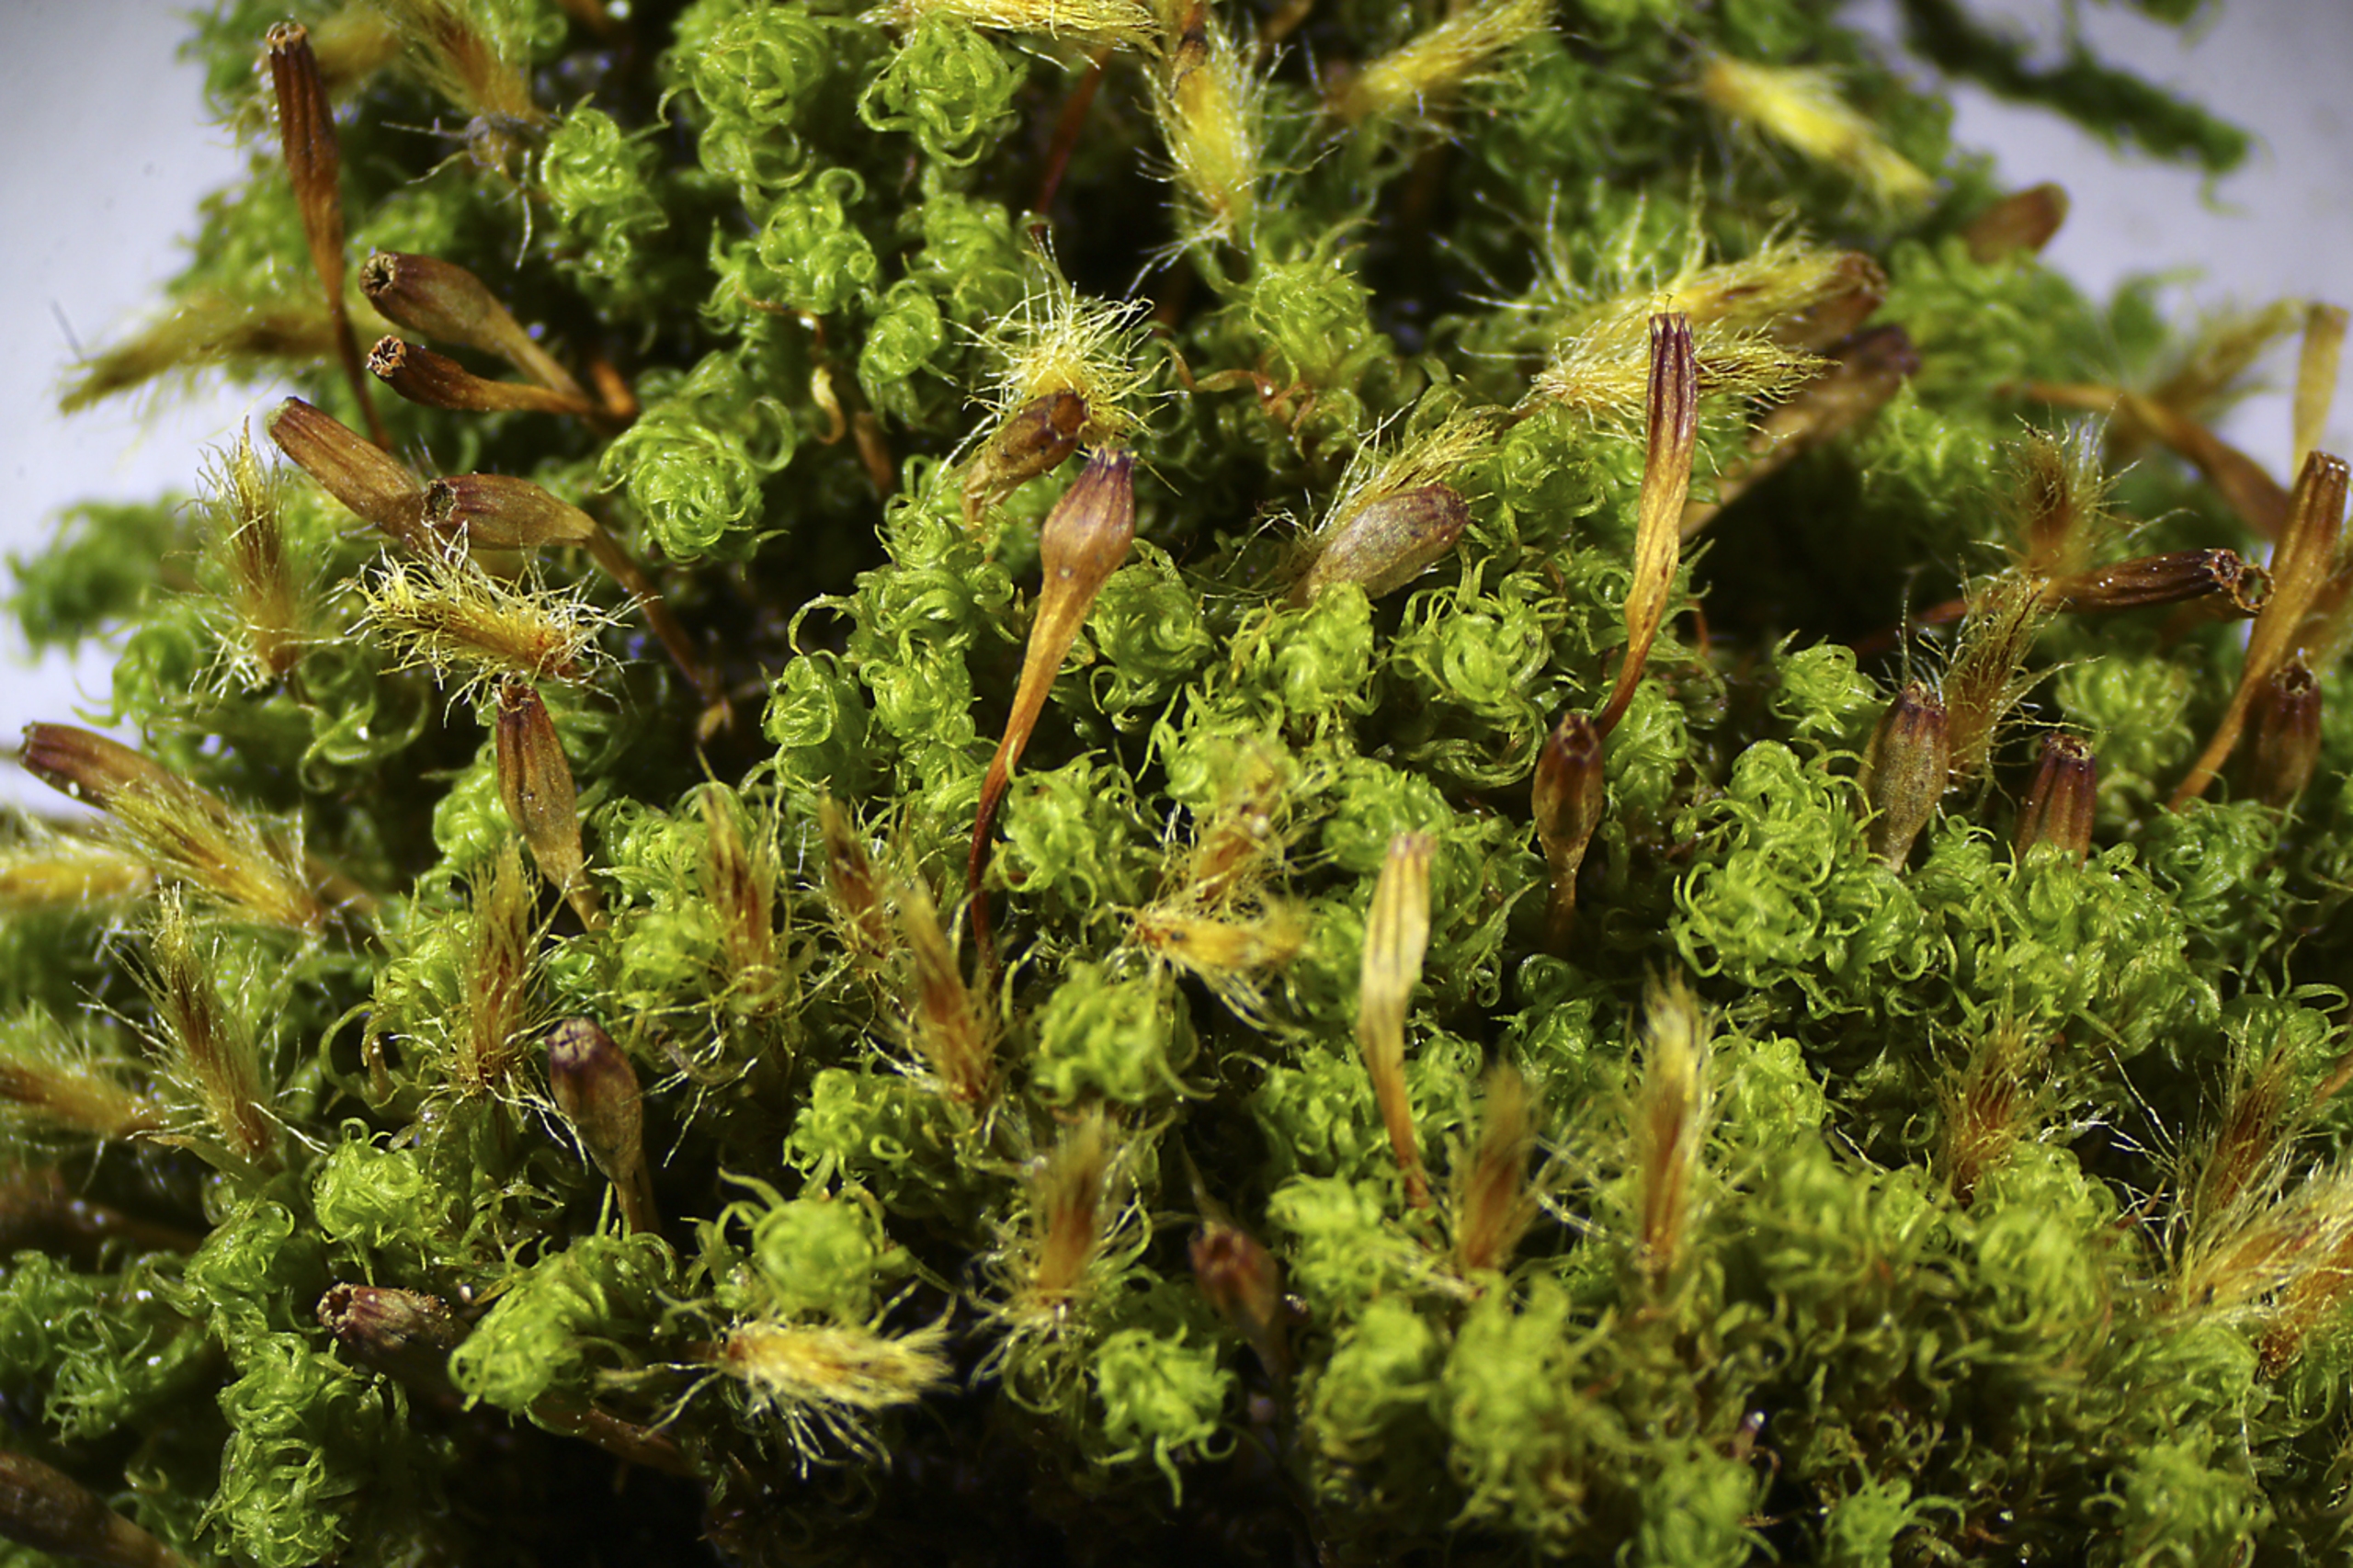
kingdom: Plantae
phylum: Bryophyta
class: Bryopsida
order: Orthotrichales
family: Orthotrichaceae
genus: Ulota
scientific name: Ulota bruchii
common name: Bruchs låddenhætte
